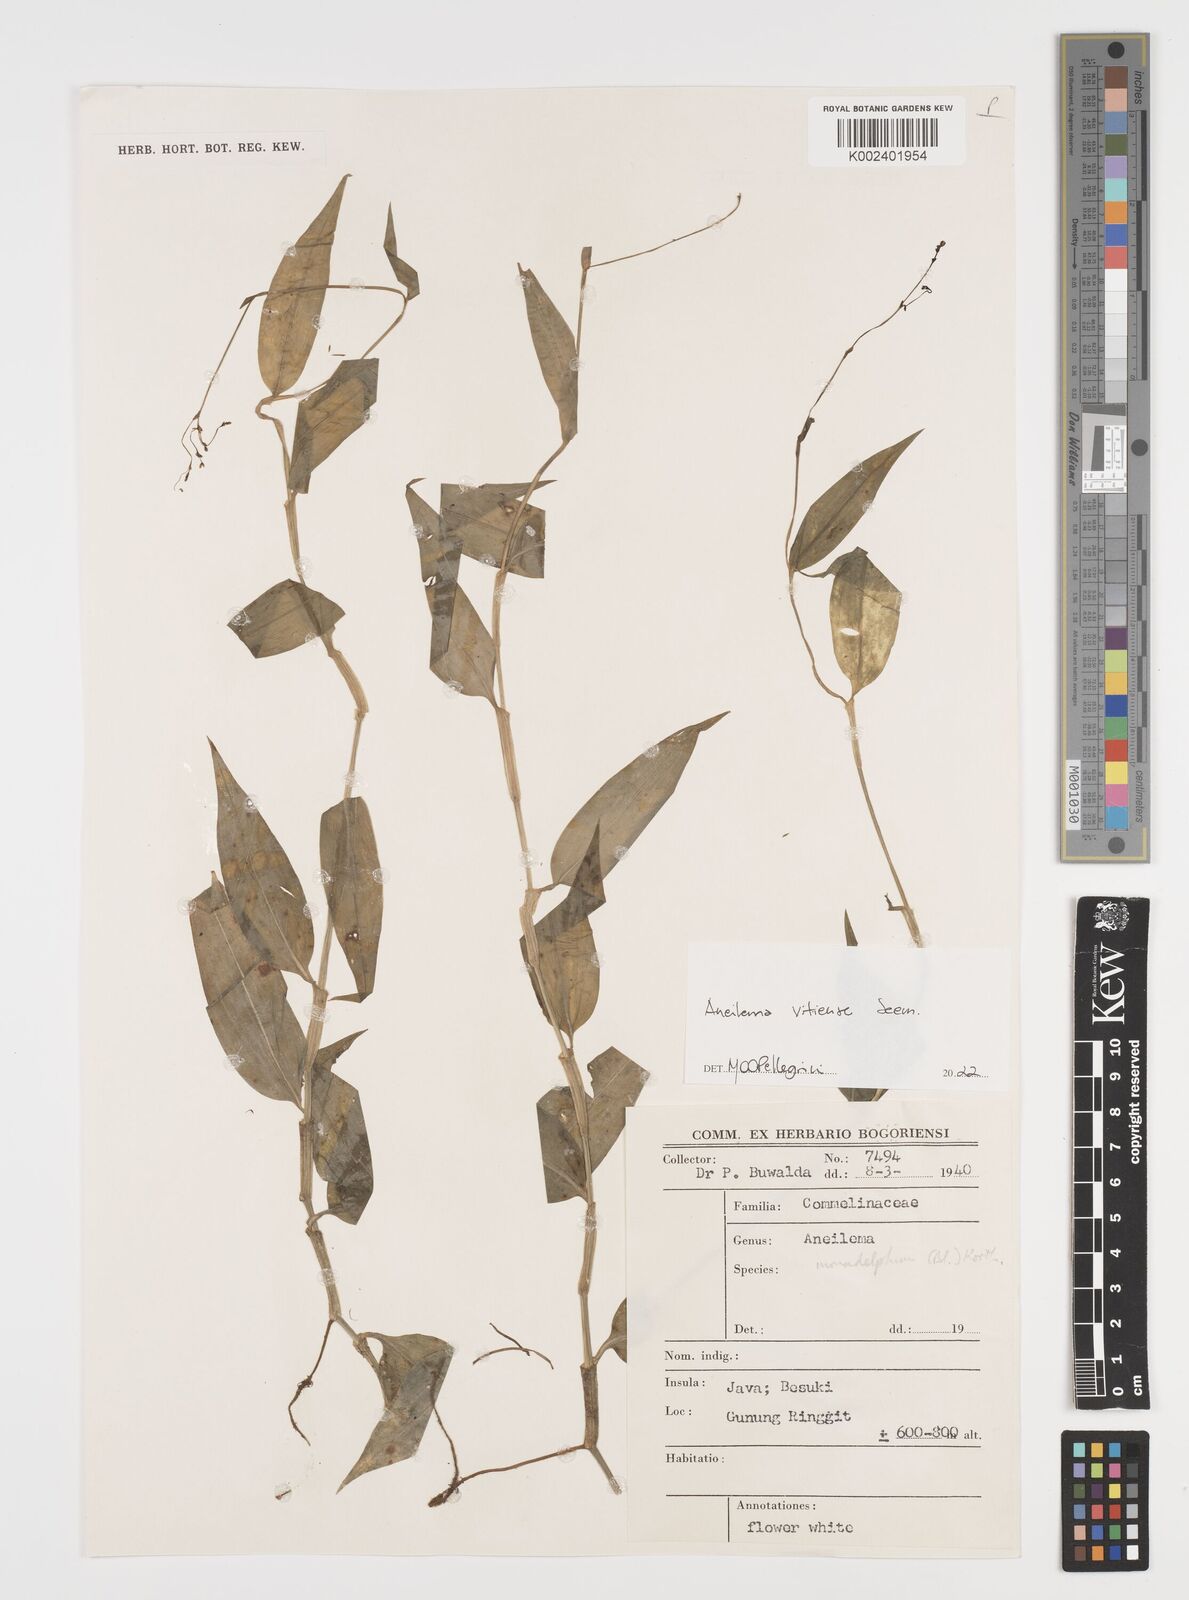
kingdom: Plantae
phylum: Tracheophyta
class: Liliopsida
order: Commelinales
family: Commelinaceae
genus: Rhopalephora
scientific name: Rhopalephora vitiensis
